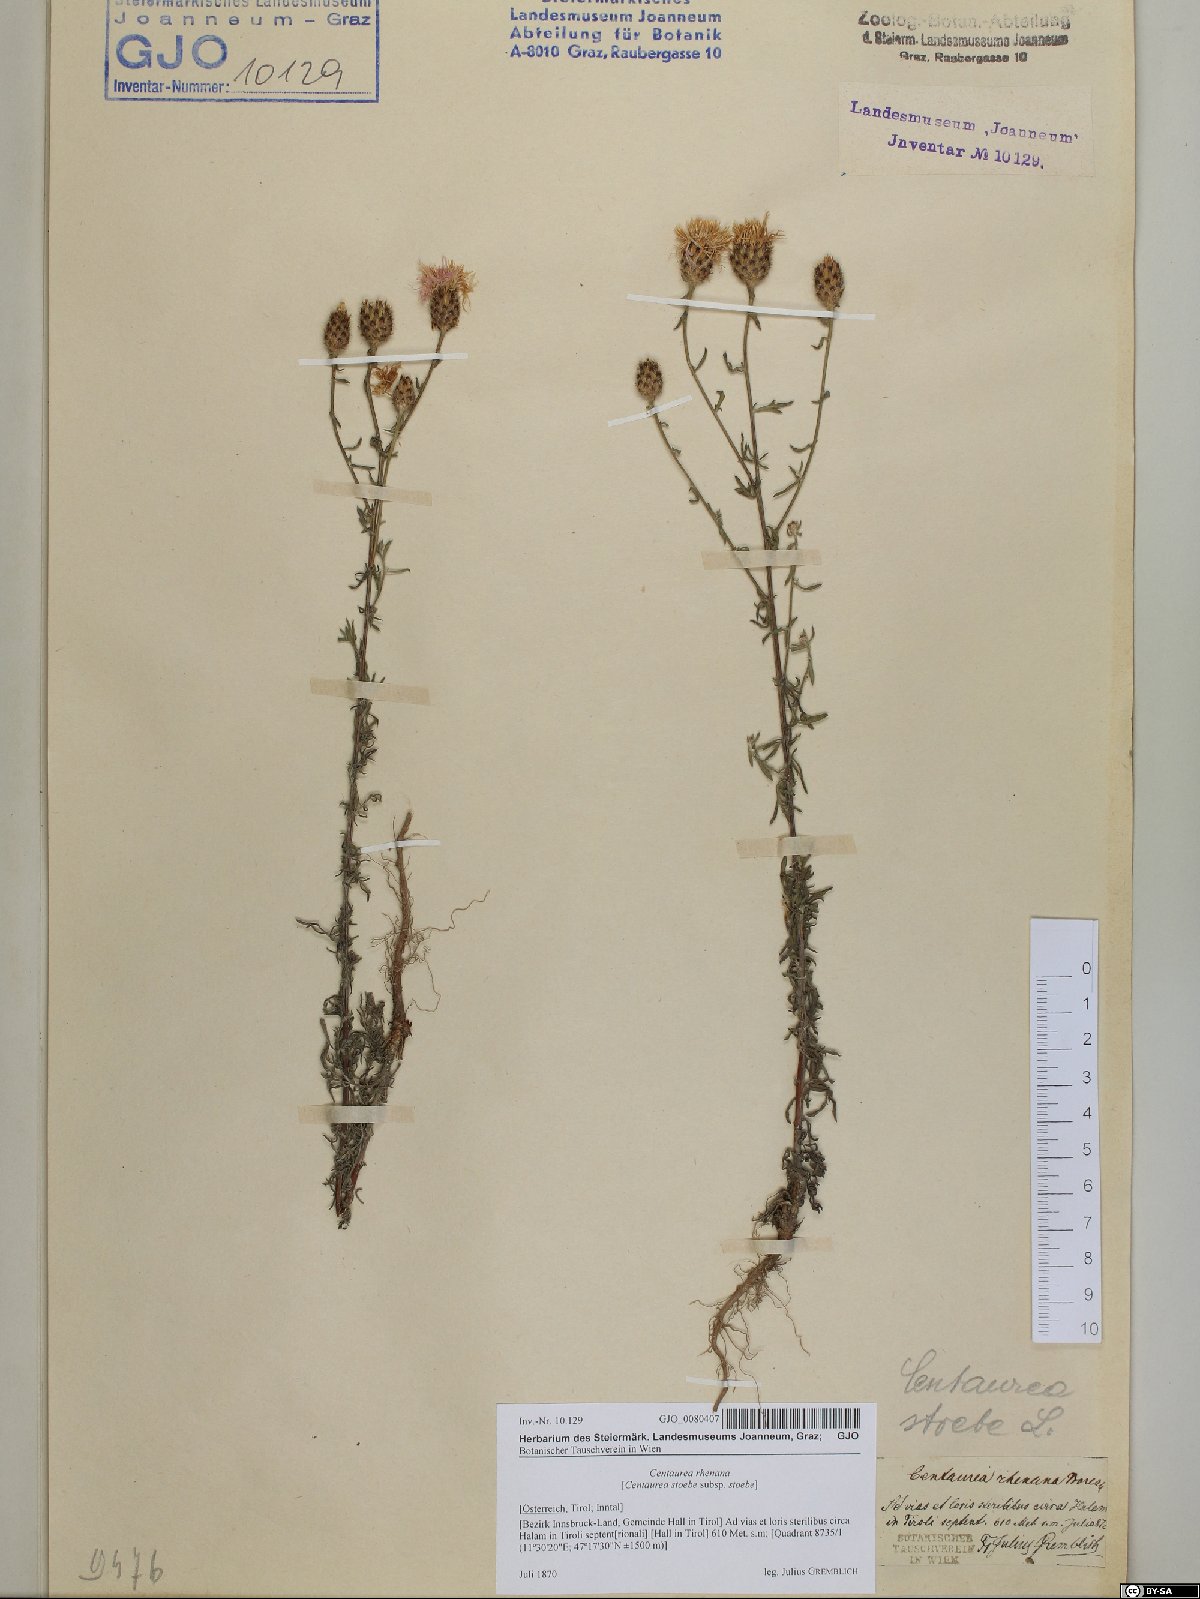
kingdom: Plantae
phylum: Tracheophyta
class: Magnoliopsida
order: Asterales
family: Asteraceae
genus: Centaurea
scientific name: Centaurea stoebe
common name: Spotted knapweed
